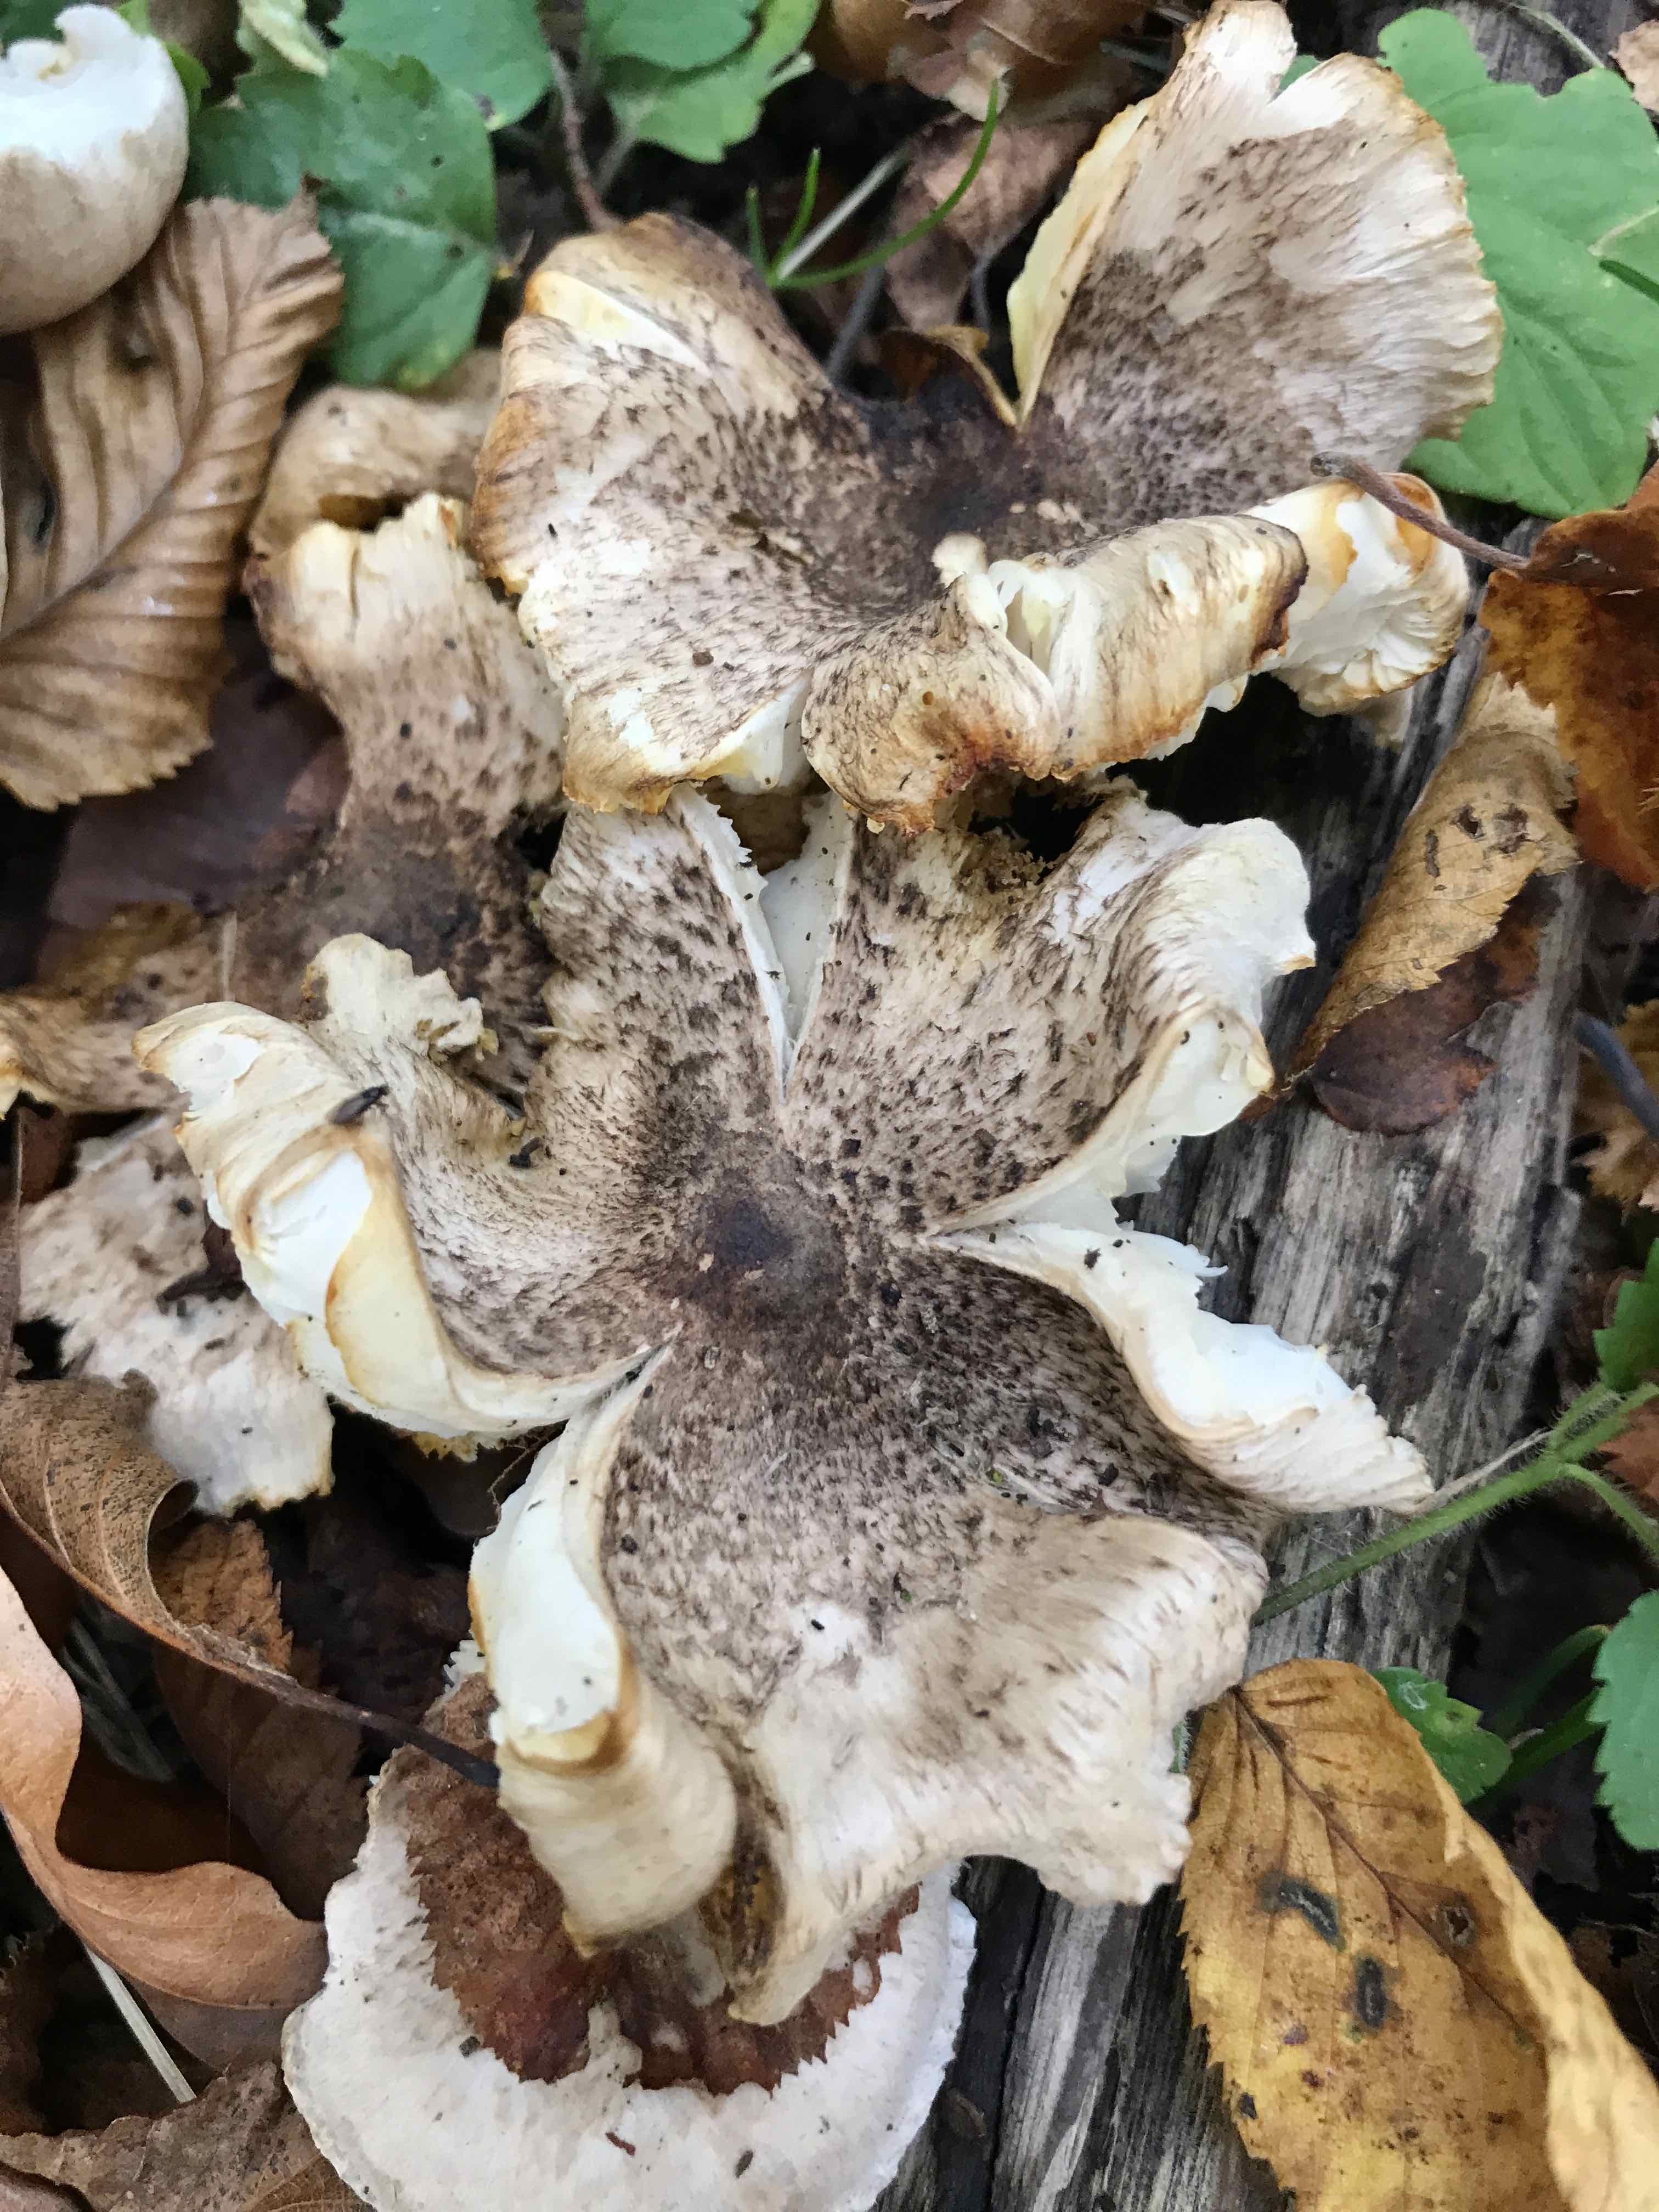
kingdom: Fungi
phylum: Basidiomycota
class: Agaricomycetes
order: Agaricales
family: Tricholomataceae
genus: Tricholoma
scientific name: Tricholoma scalpturatum
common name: gulplettet ridderhat
